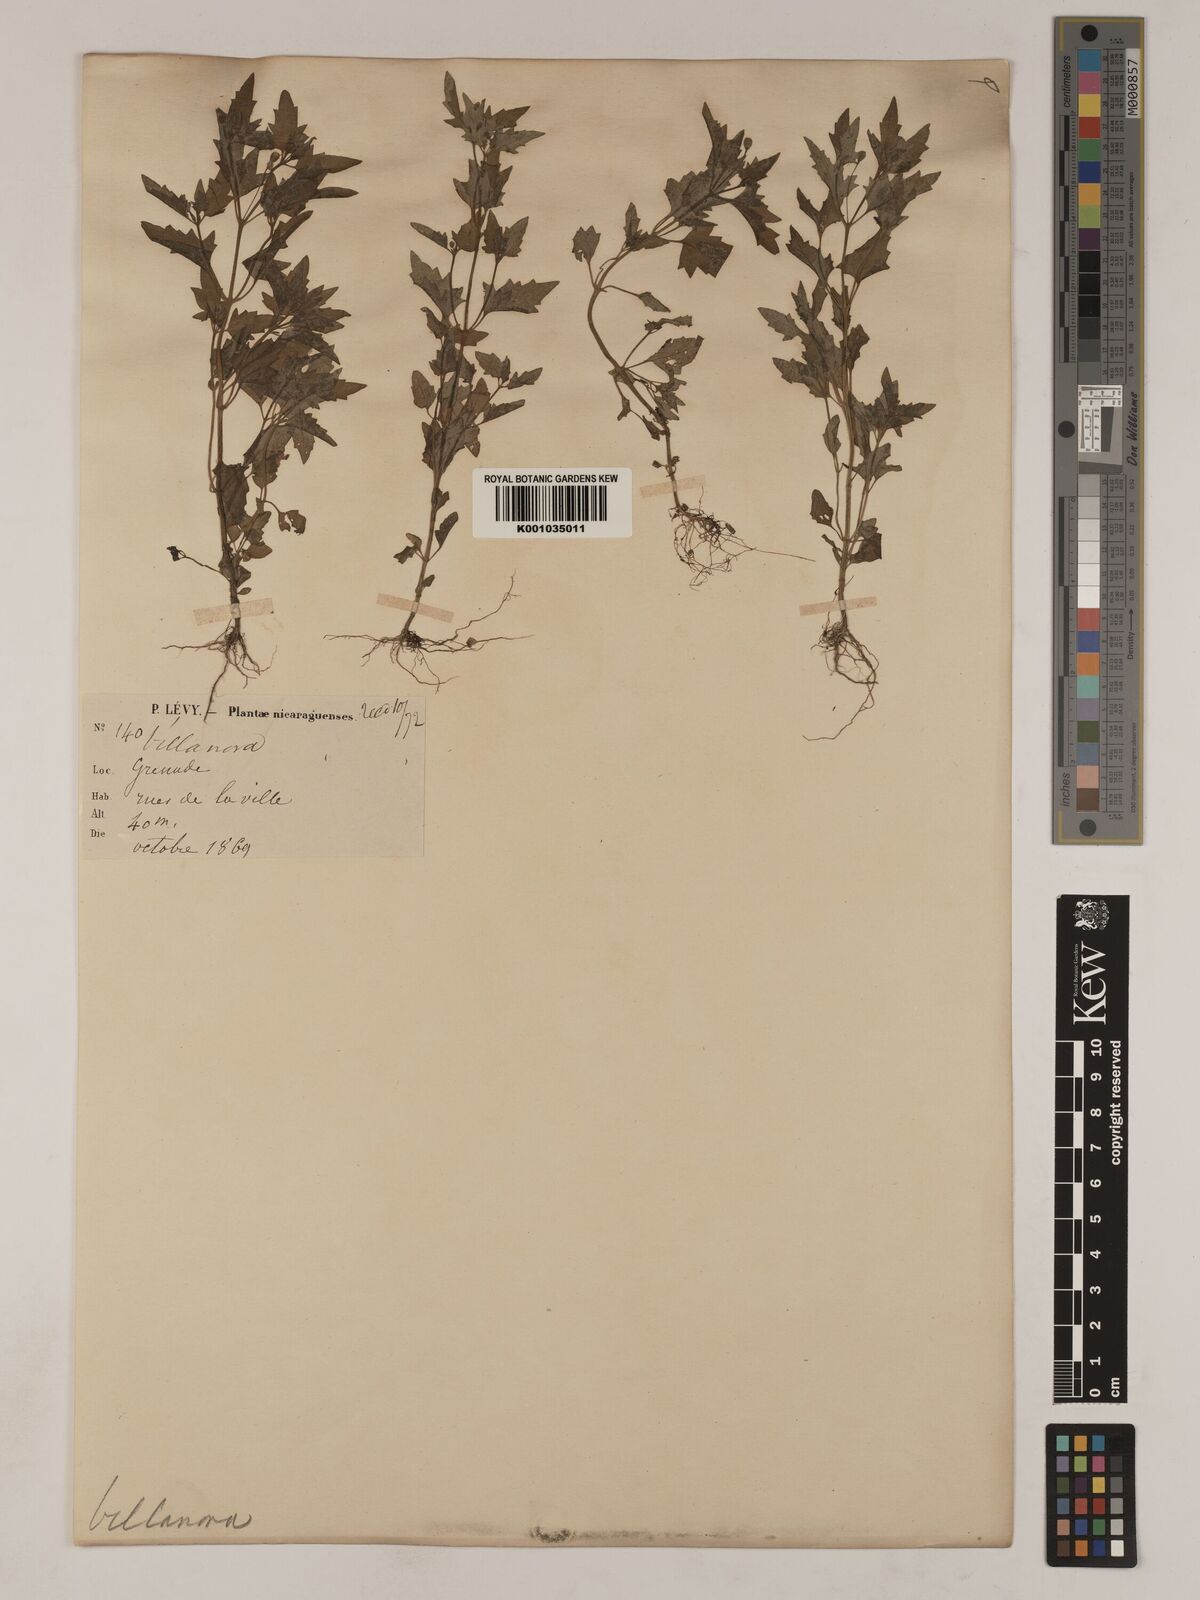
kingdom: Plantae
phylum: Tracheophyta
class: Magnoliopsida
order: Asterales
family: Asteraceae
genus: Galeana
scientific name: Galeana pratensis
